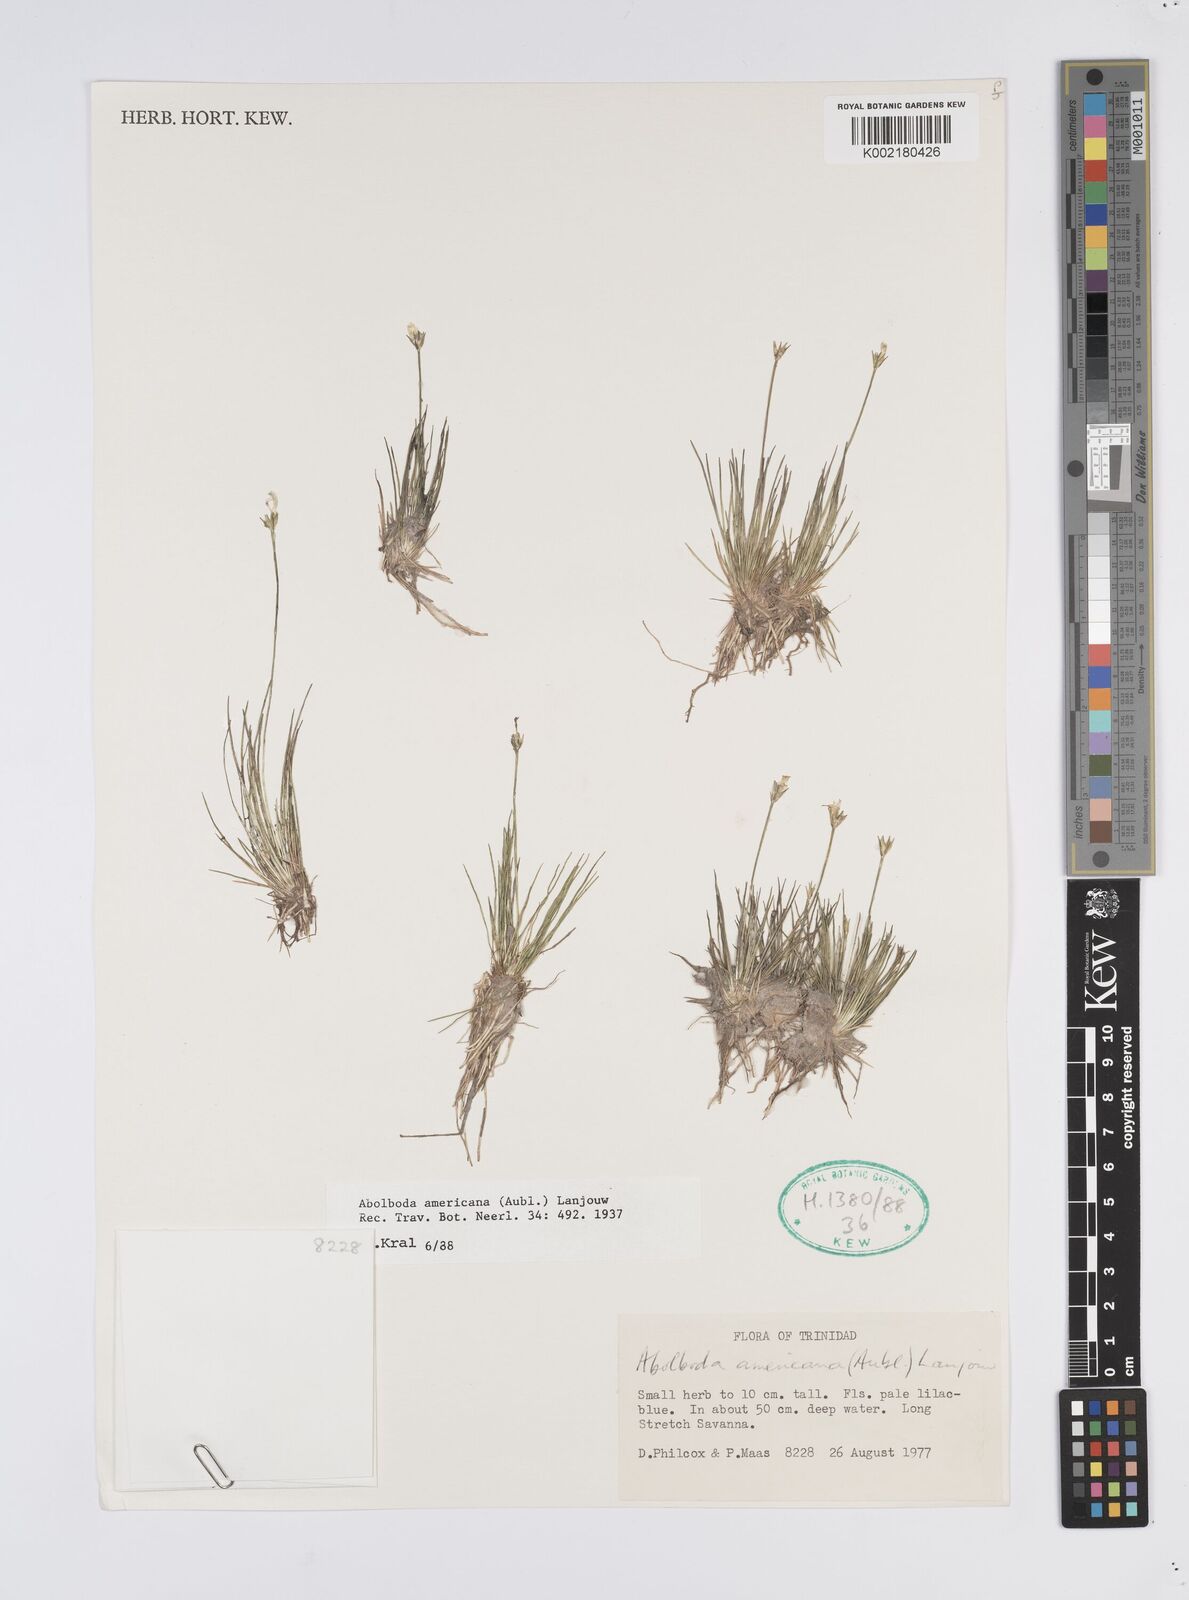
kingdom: Plantae
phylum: Tracheophyta
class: Liliopsida
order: Poales
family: Xyridaceae
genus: Abolboda
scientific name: Abolboda americana
